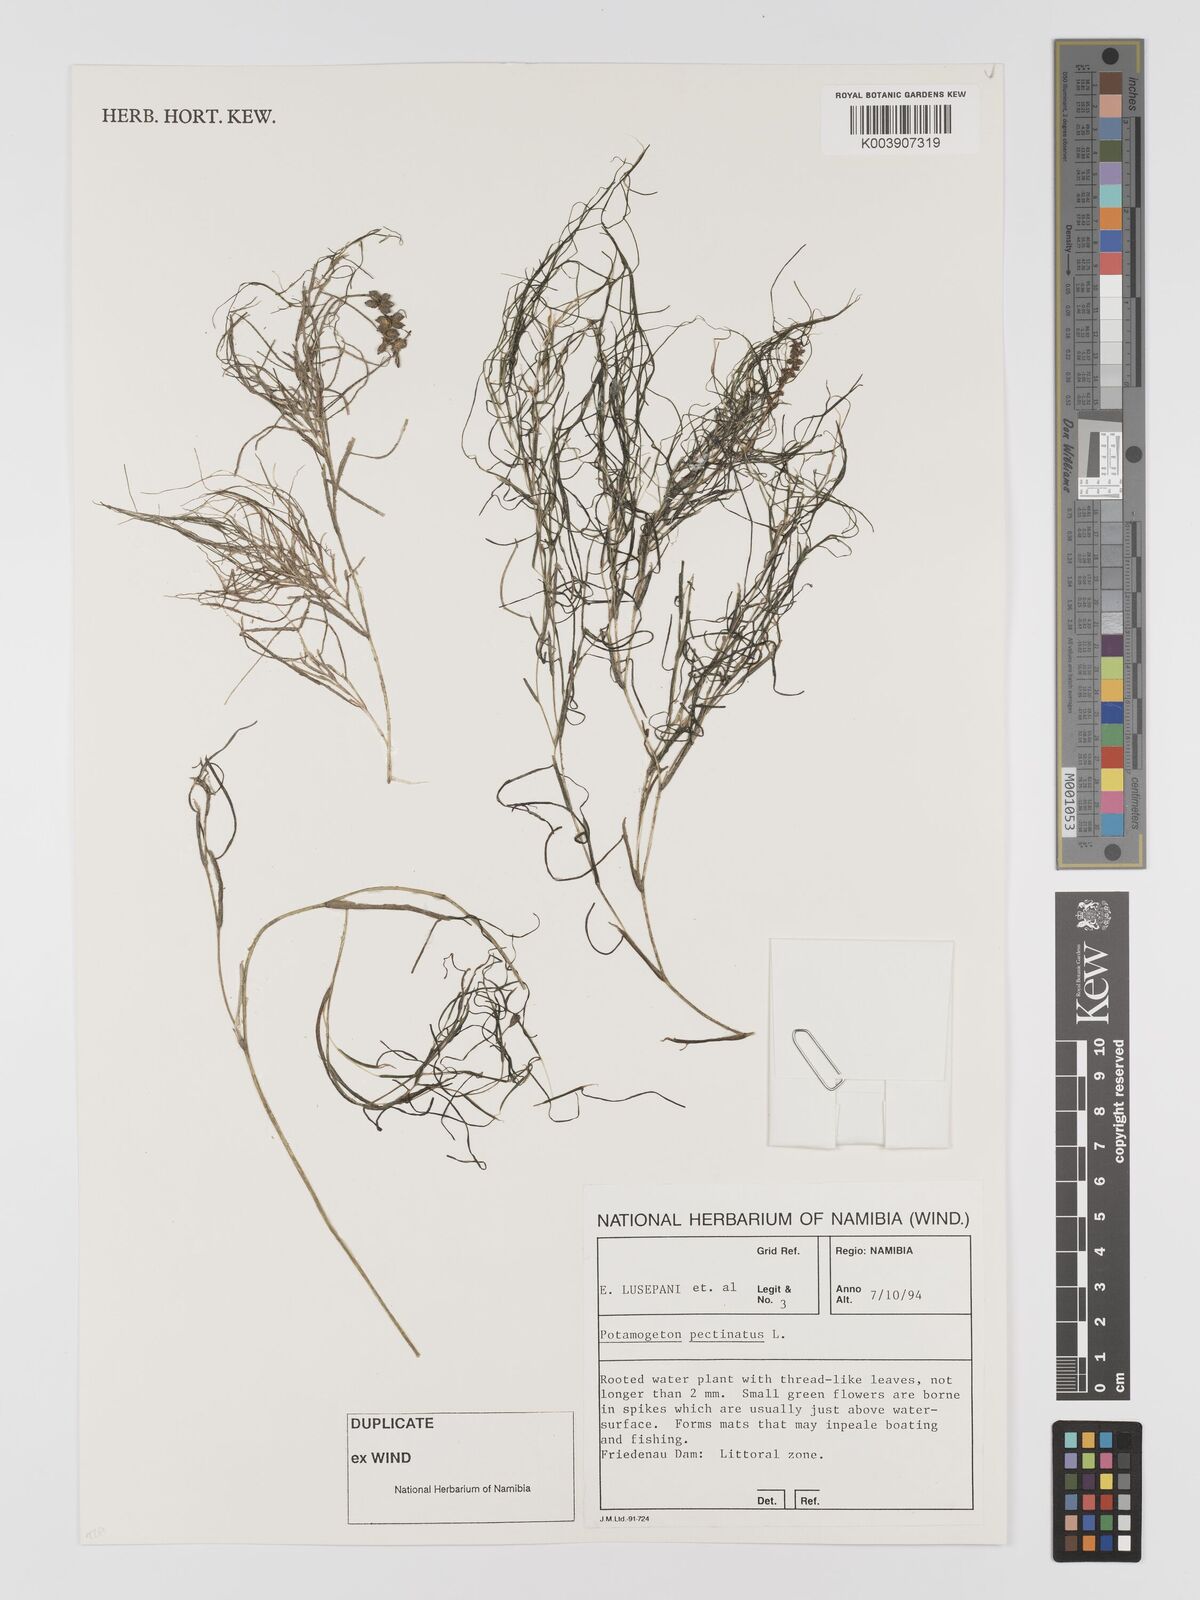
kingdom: Plantae
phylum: Tracheophyta
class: Liliopsida
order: Alismatales
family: Potamogetonaceae
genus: Stuckenia
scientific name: Stuckenia pectinata
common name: Sago pondweed
